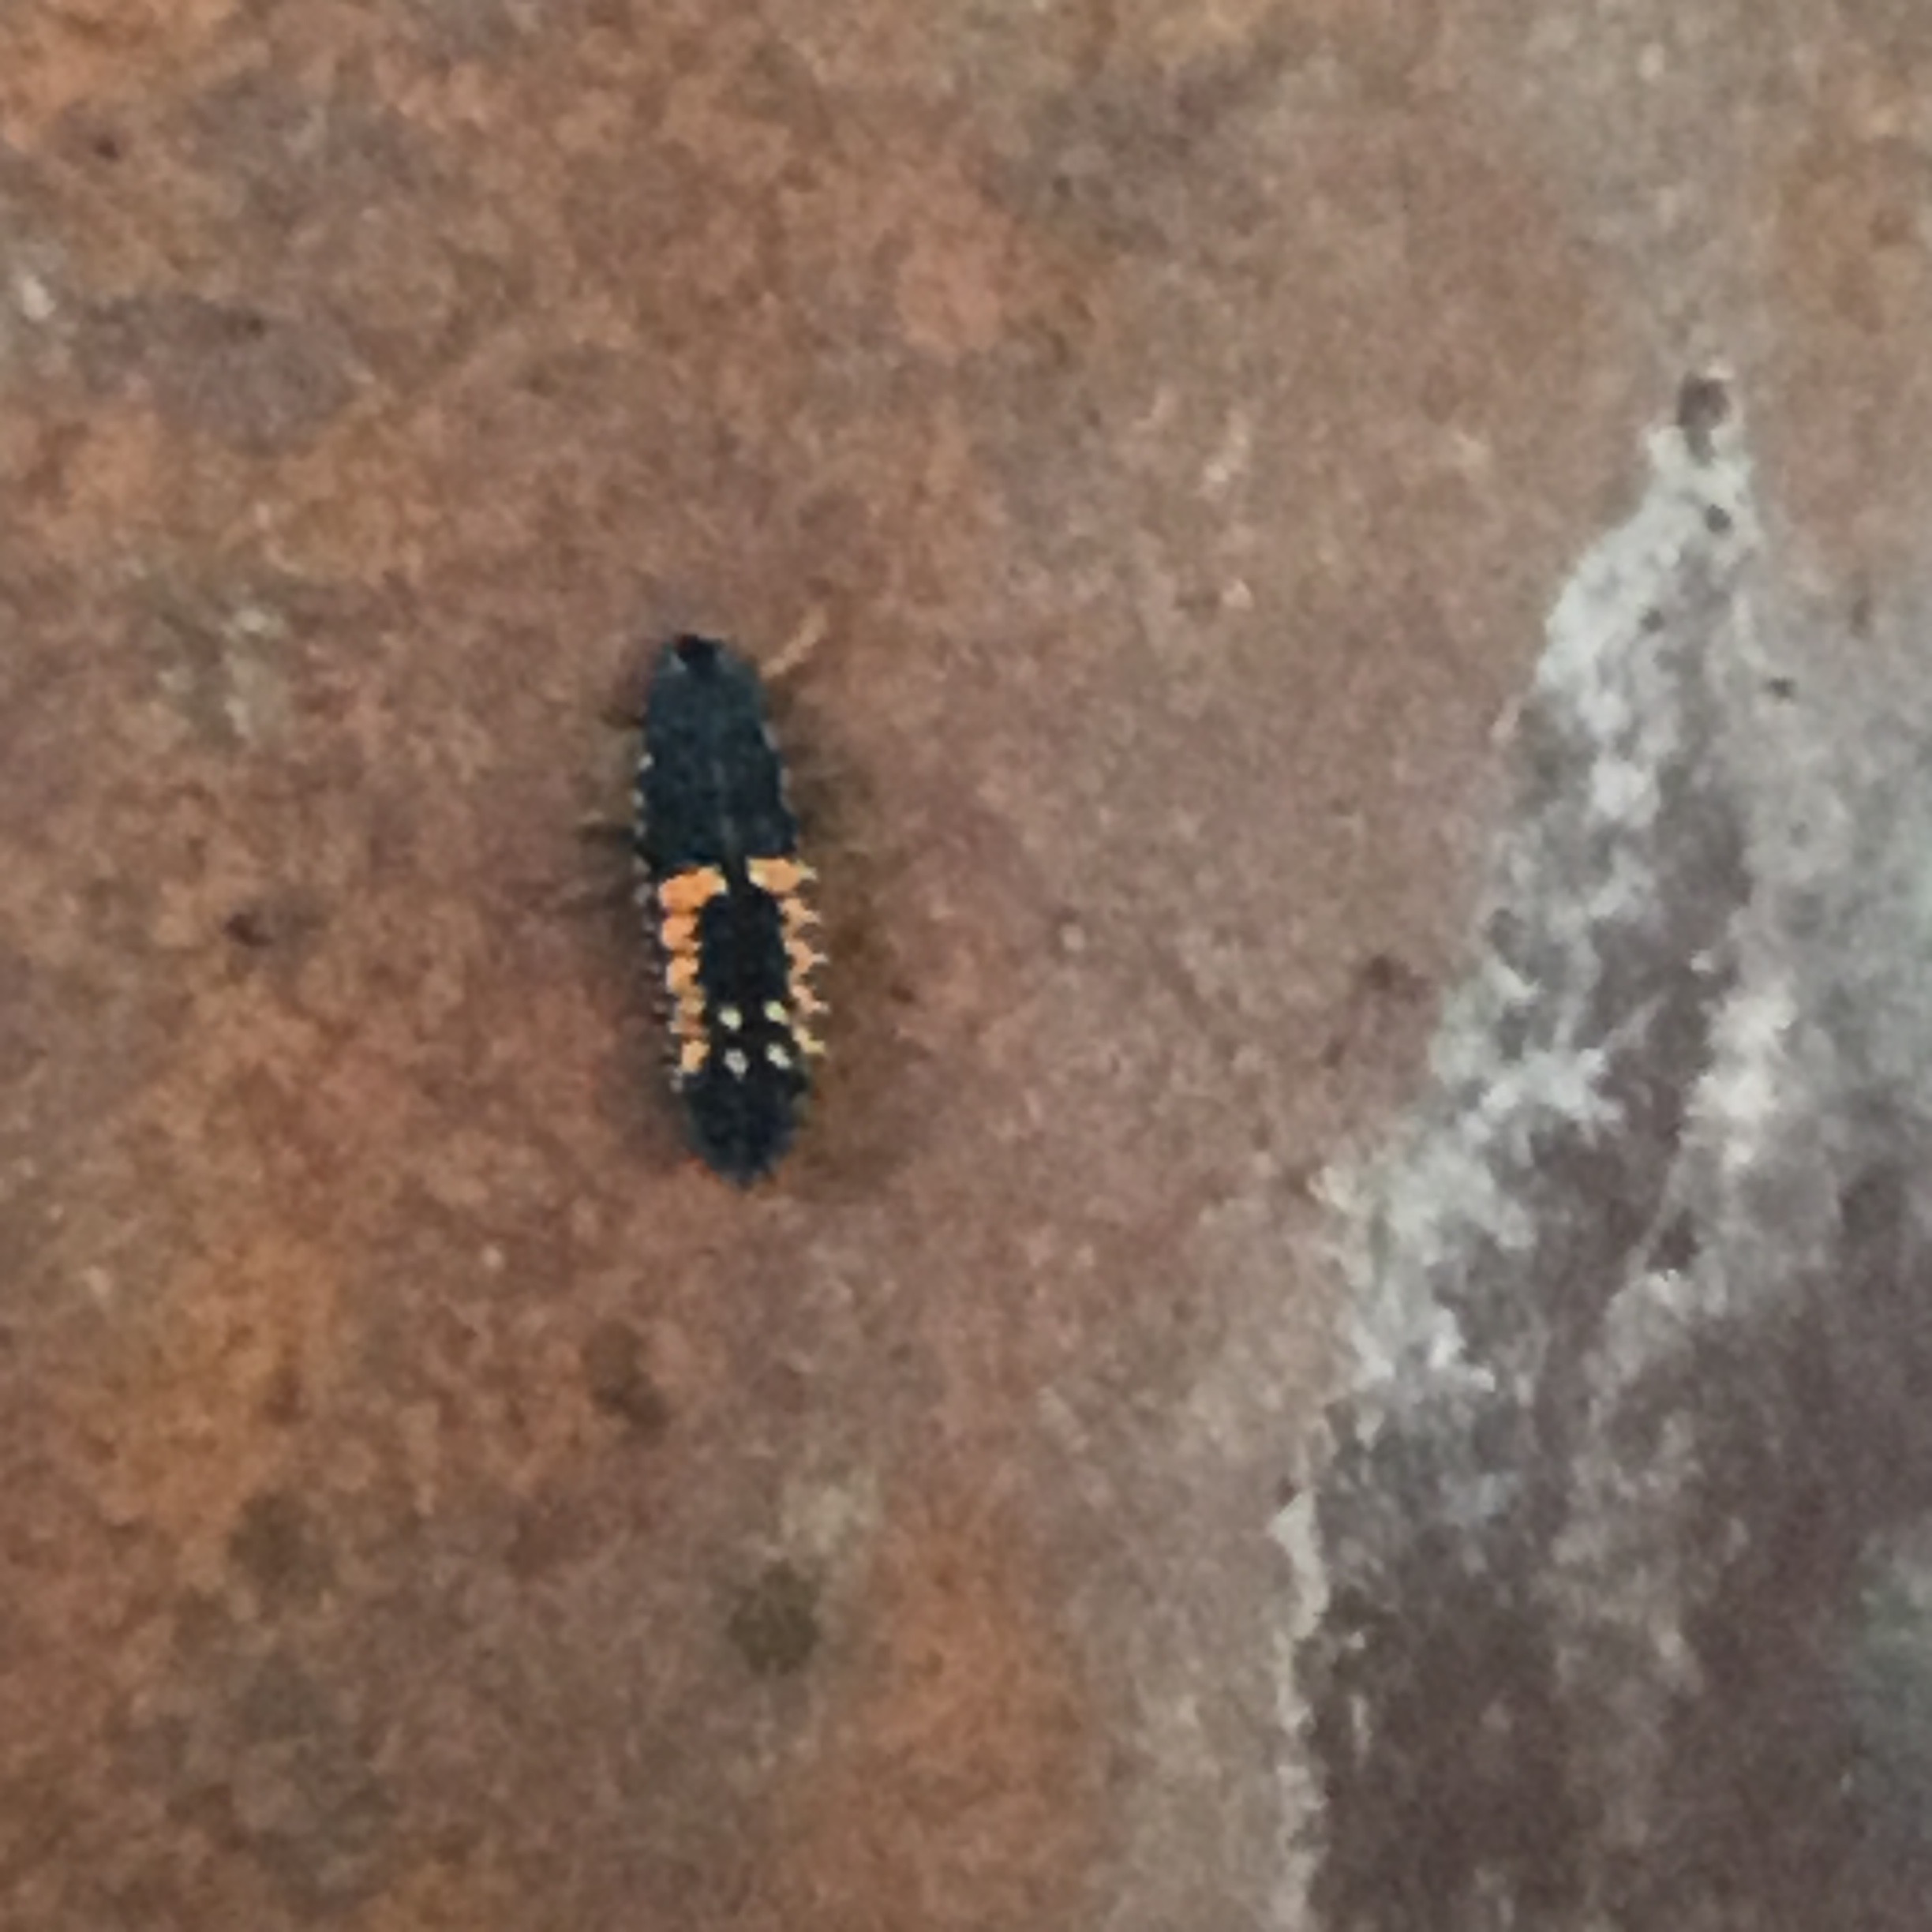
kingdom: Animalia
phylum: Arthropoda
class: Insecta
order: Coleoptera
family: Coccinellidae
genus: Harmonia
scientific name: Harmonia axyridis
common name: Harlekinmariehøne
